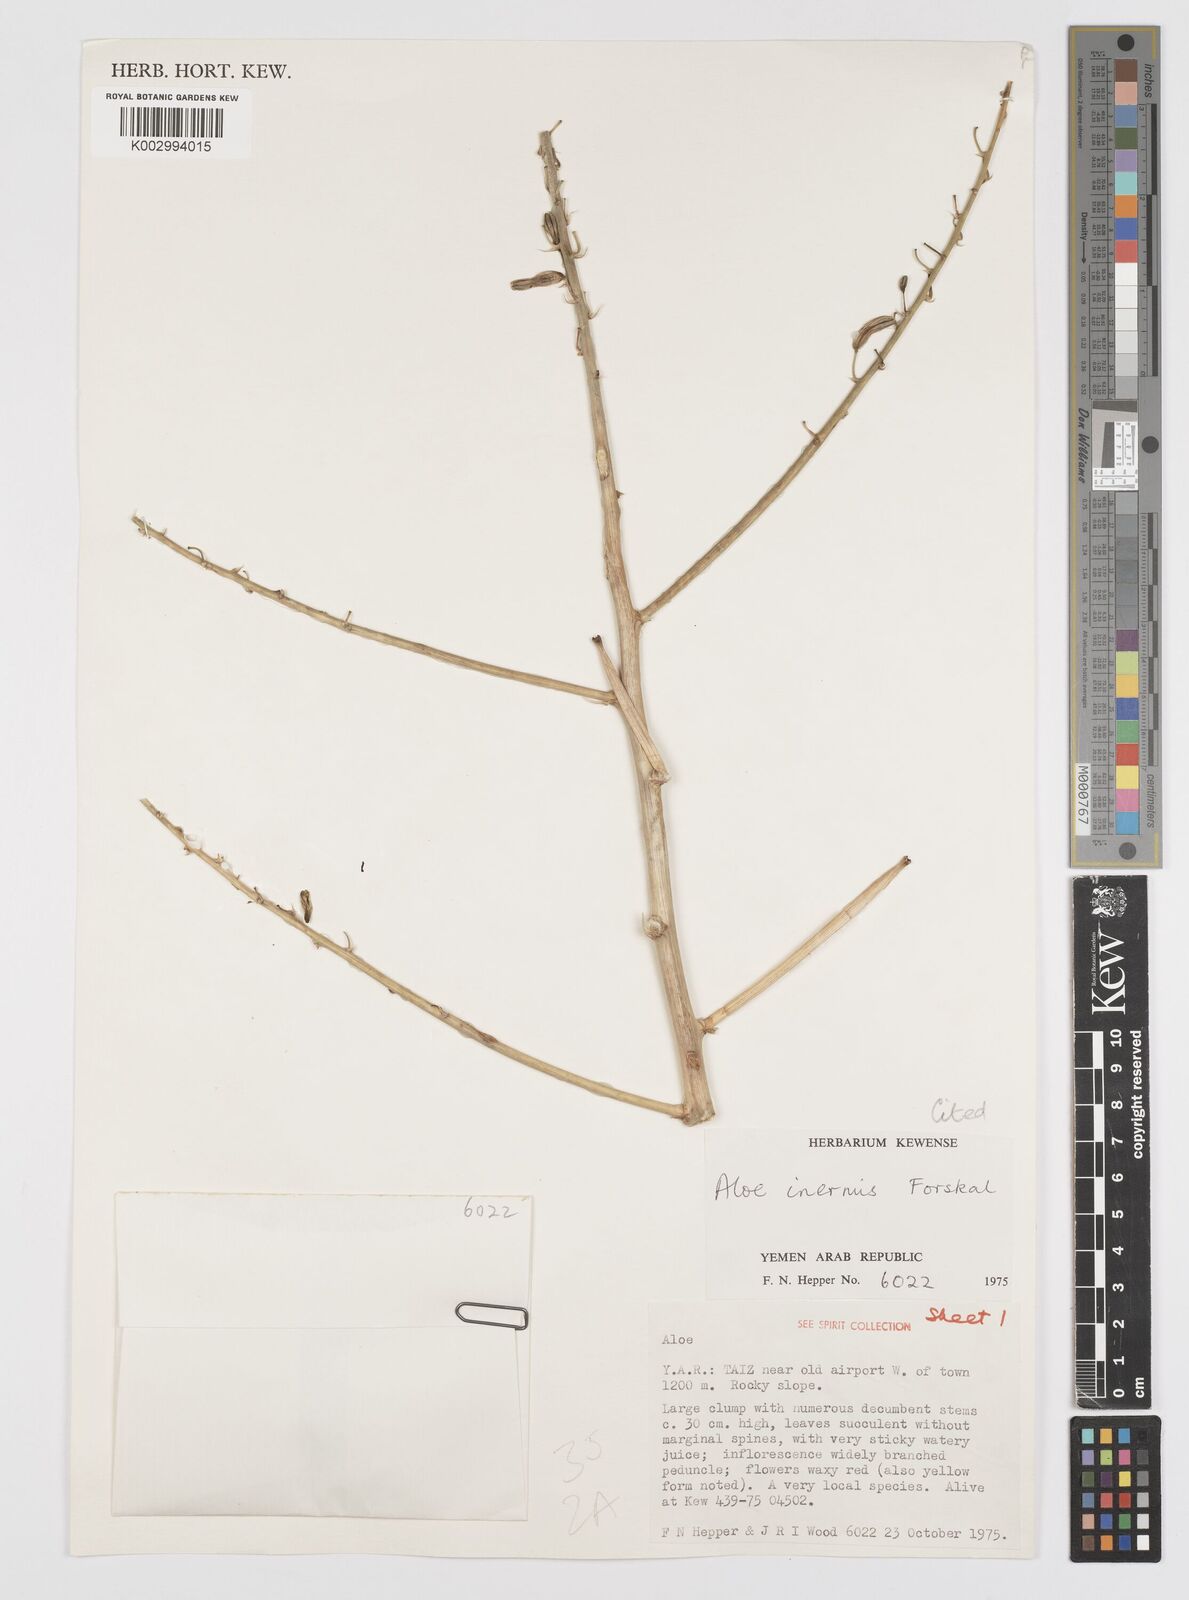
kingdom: Plantae
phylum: Tracheophyta
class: Liliopsida
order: Asparagales
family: Asphodelaceae
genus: Aloe
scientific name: Aloe inermis
